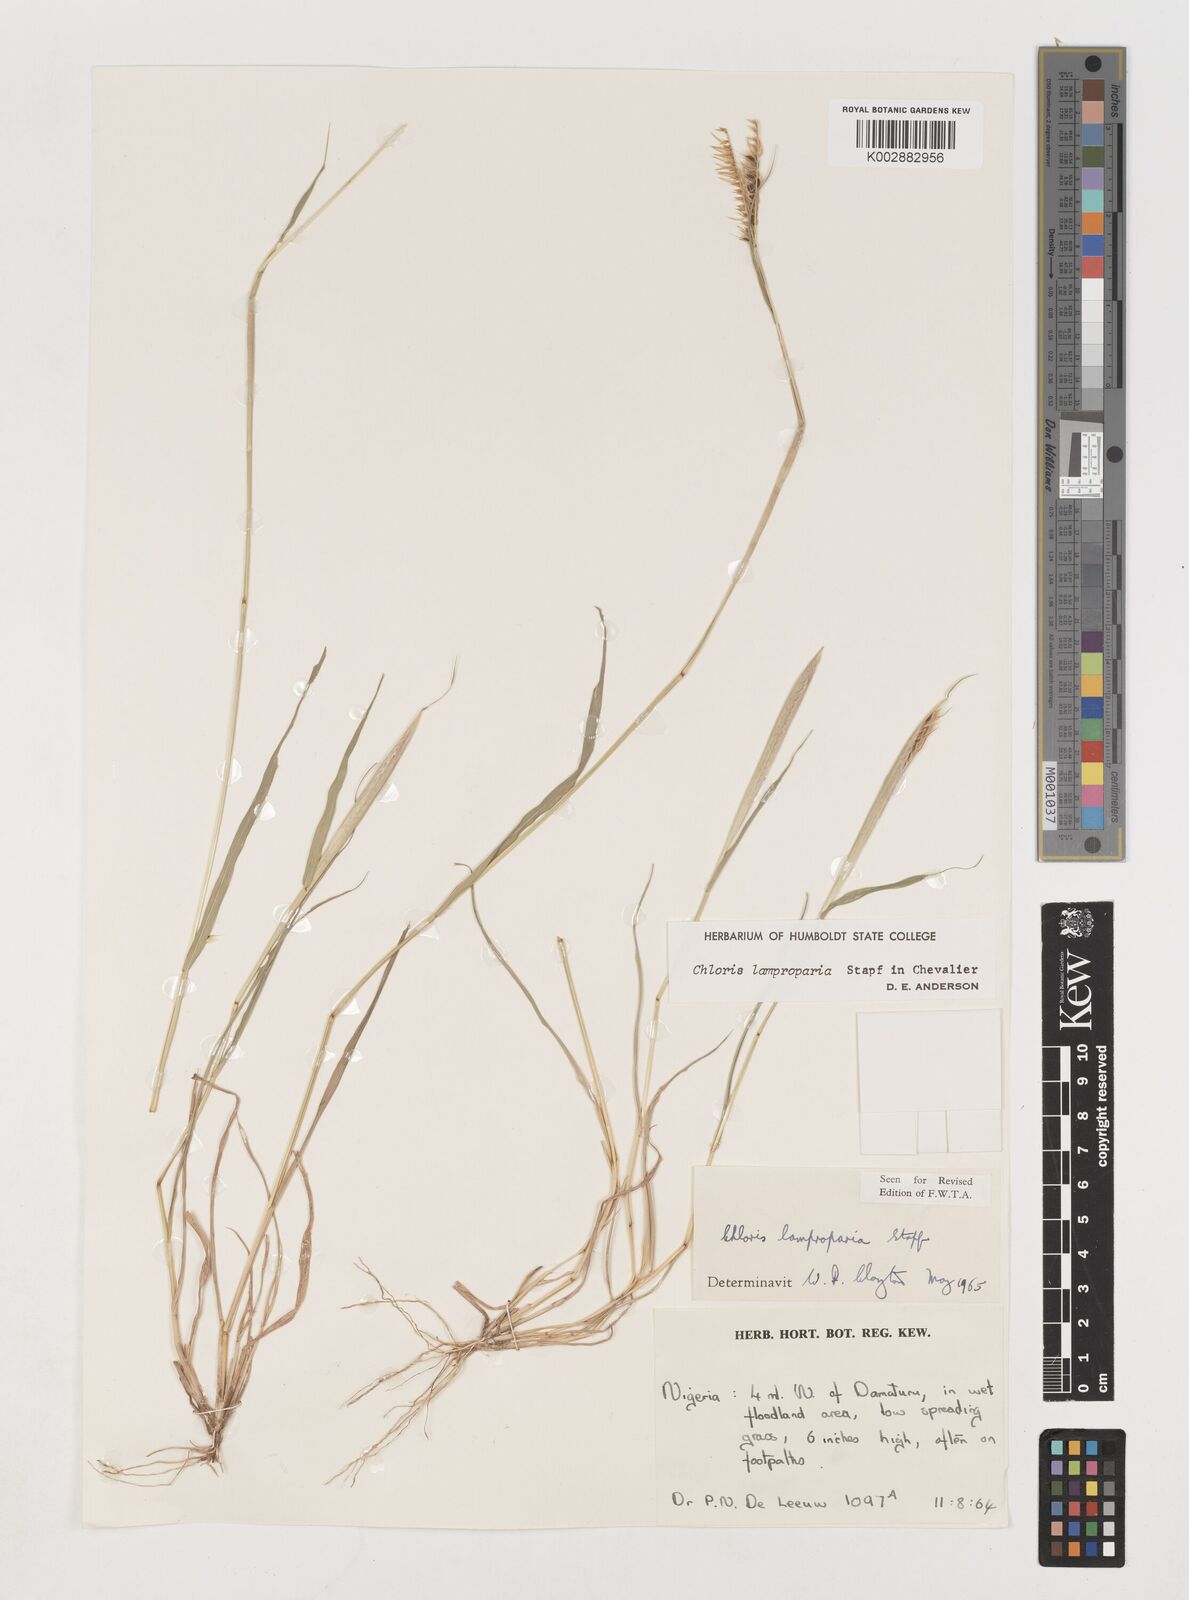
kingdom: Plantae
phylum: Tracheophyta
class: Liliopsida
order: Poales
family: Poaceae
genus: Stapfochloa
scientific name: Stapfochloa lamproparia
